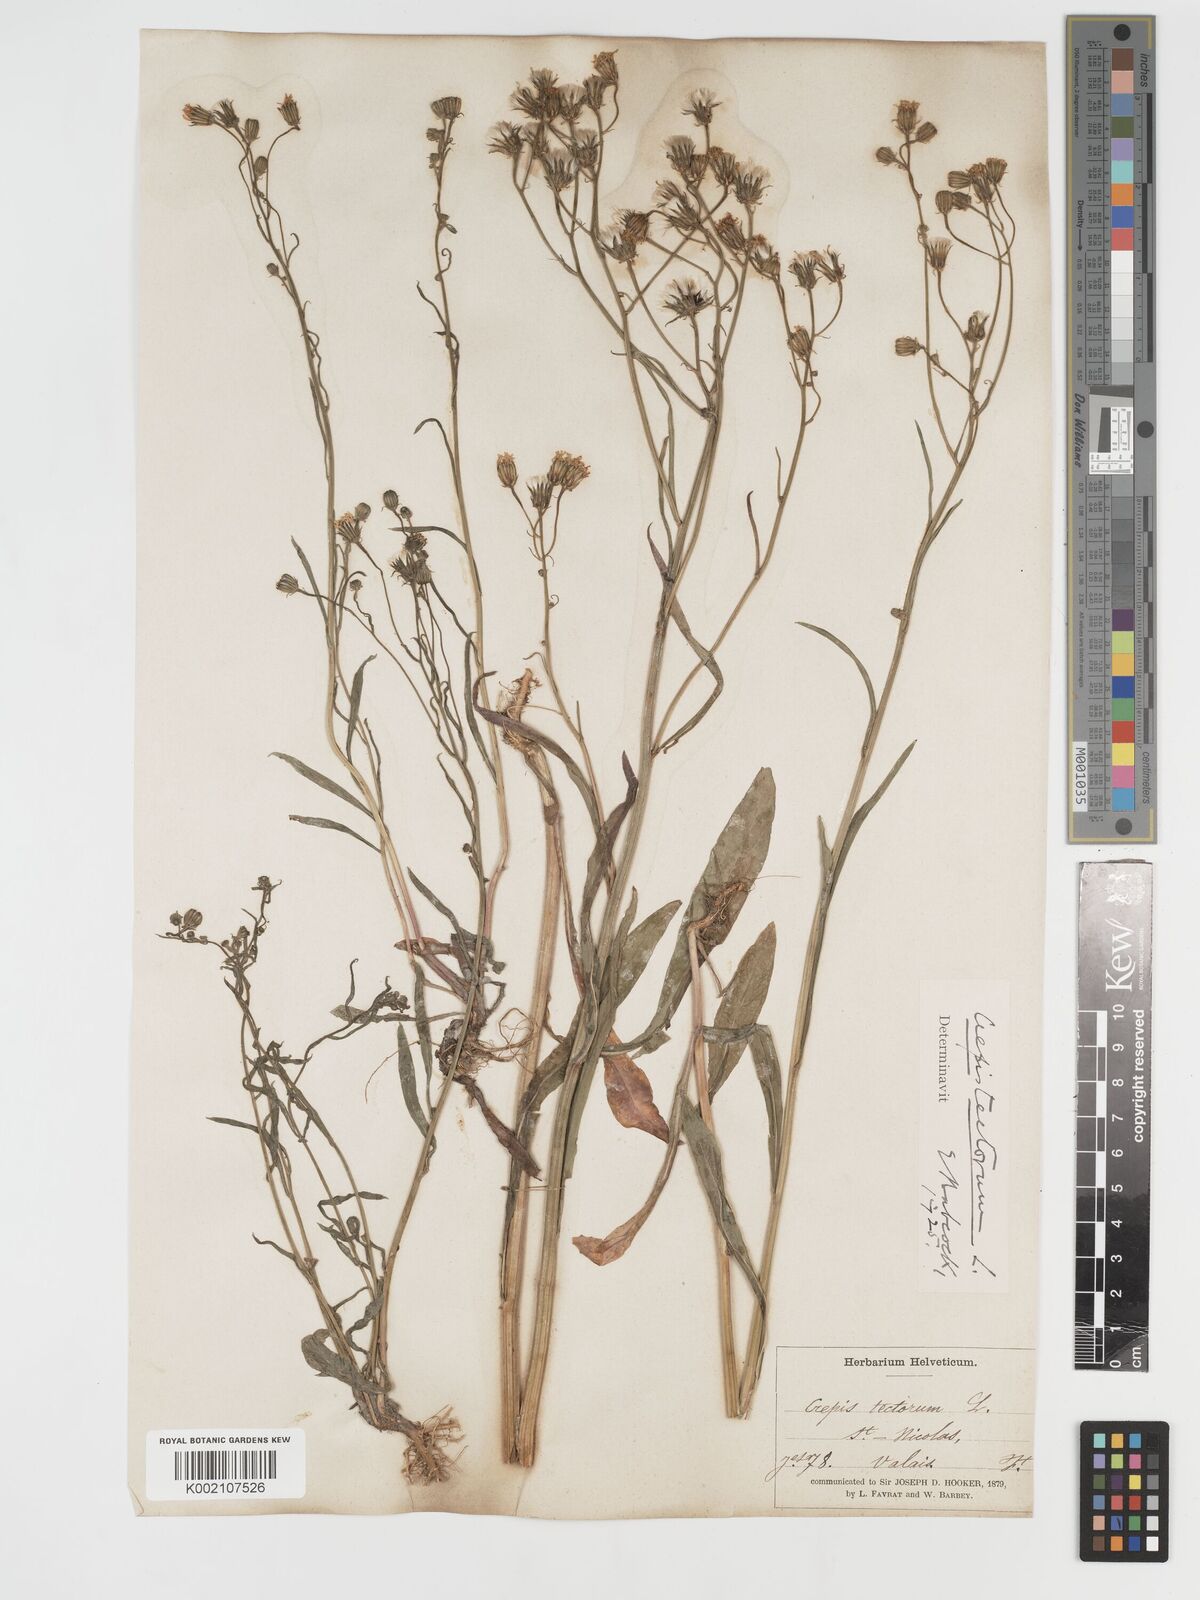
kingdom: Plantae
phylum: Tracheophyta
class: Magnoliopsida
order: Asterales
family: Asteraceae
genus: Crepis
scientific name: Crepis tectorum
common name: Narrow-leaved hawk's-beard
